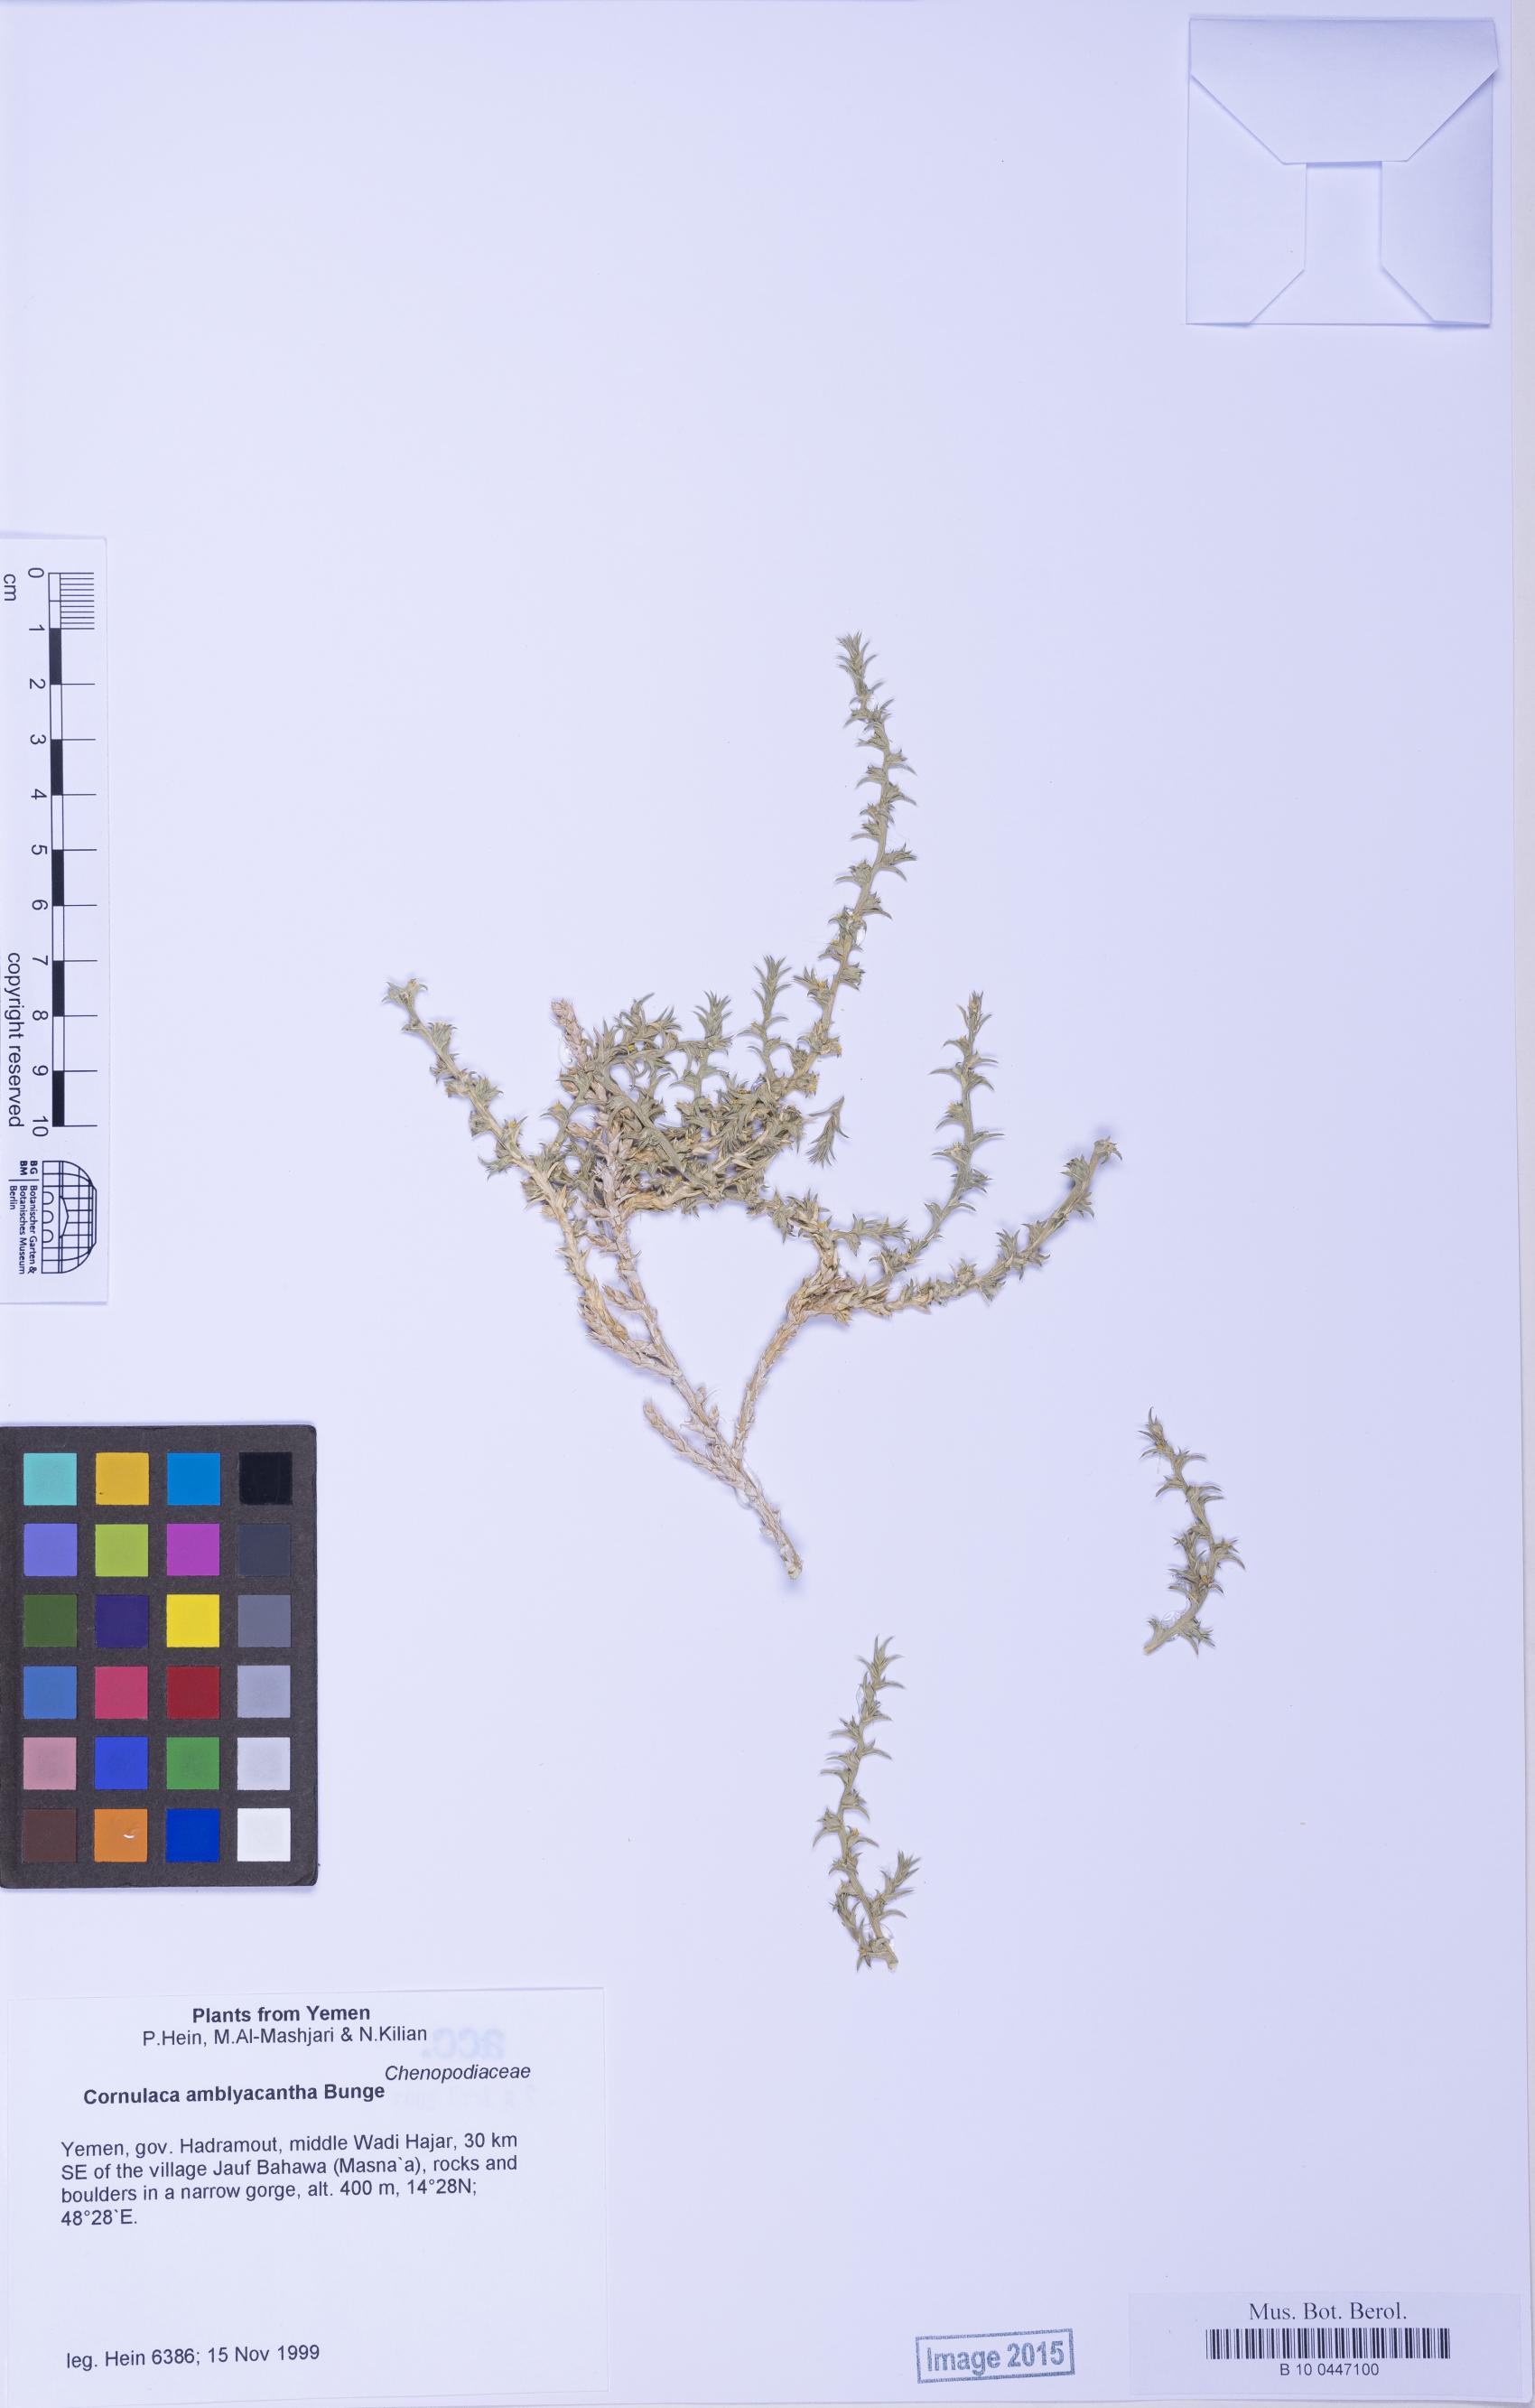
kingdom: Plantae
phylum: Tracheophyta
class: Magnoliopsida
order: Caryophyllales
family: Amaranthaceae
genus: Cornulaca
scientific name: Cornulaca monacantha
